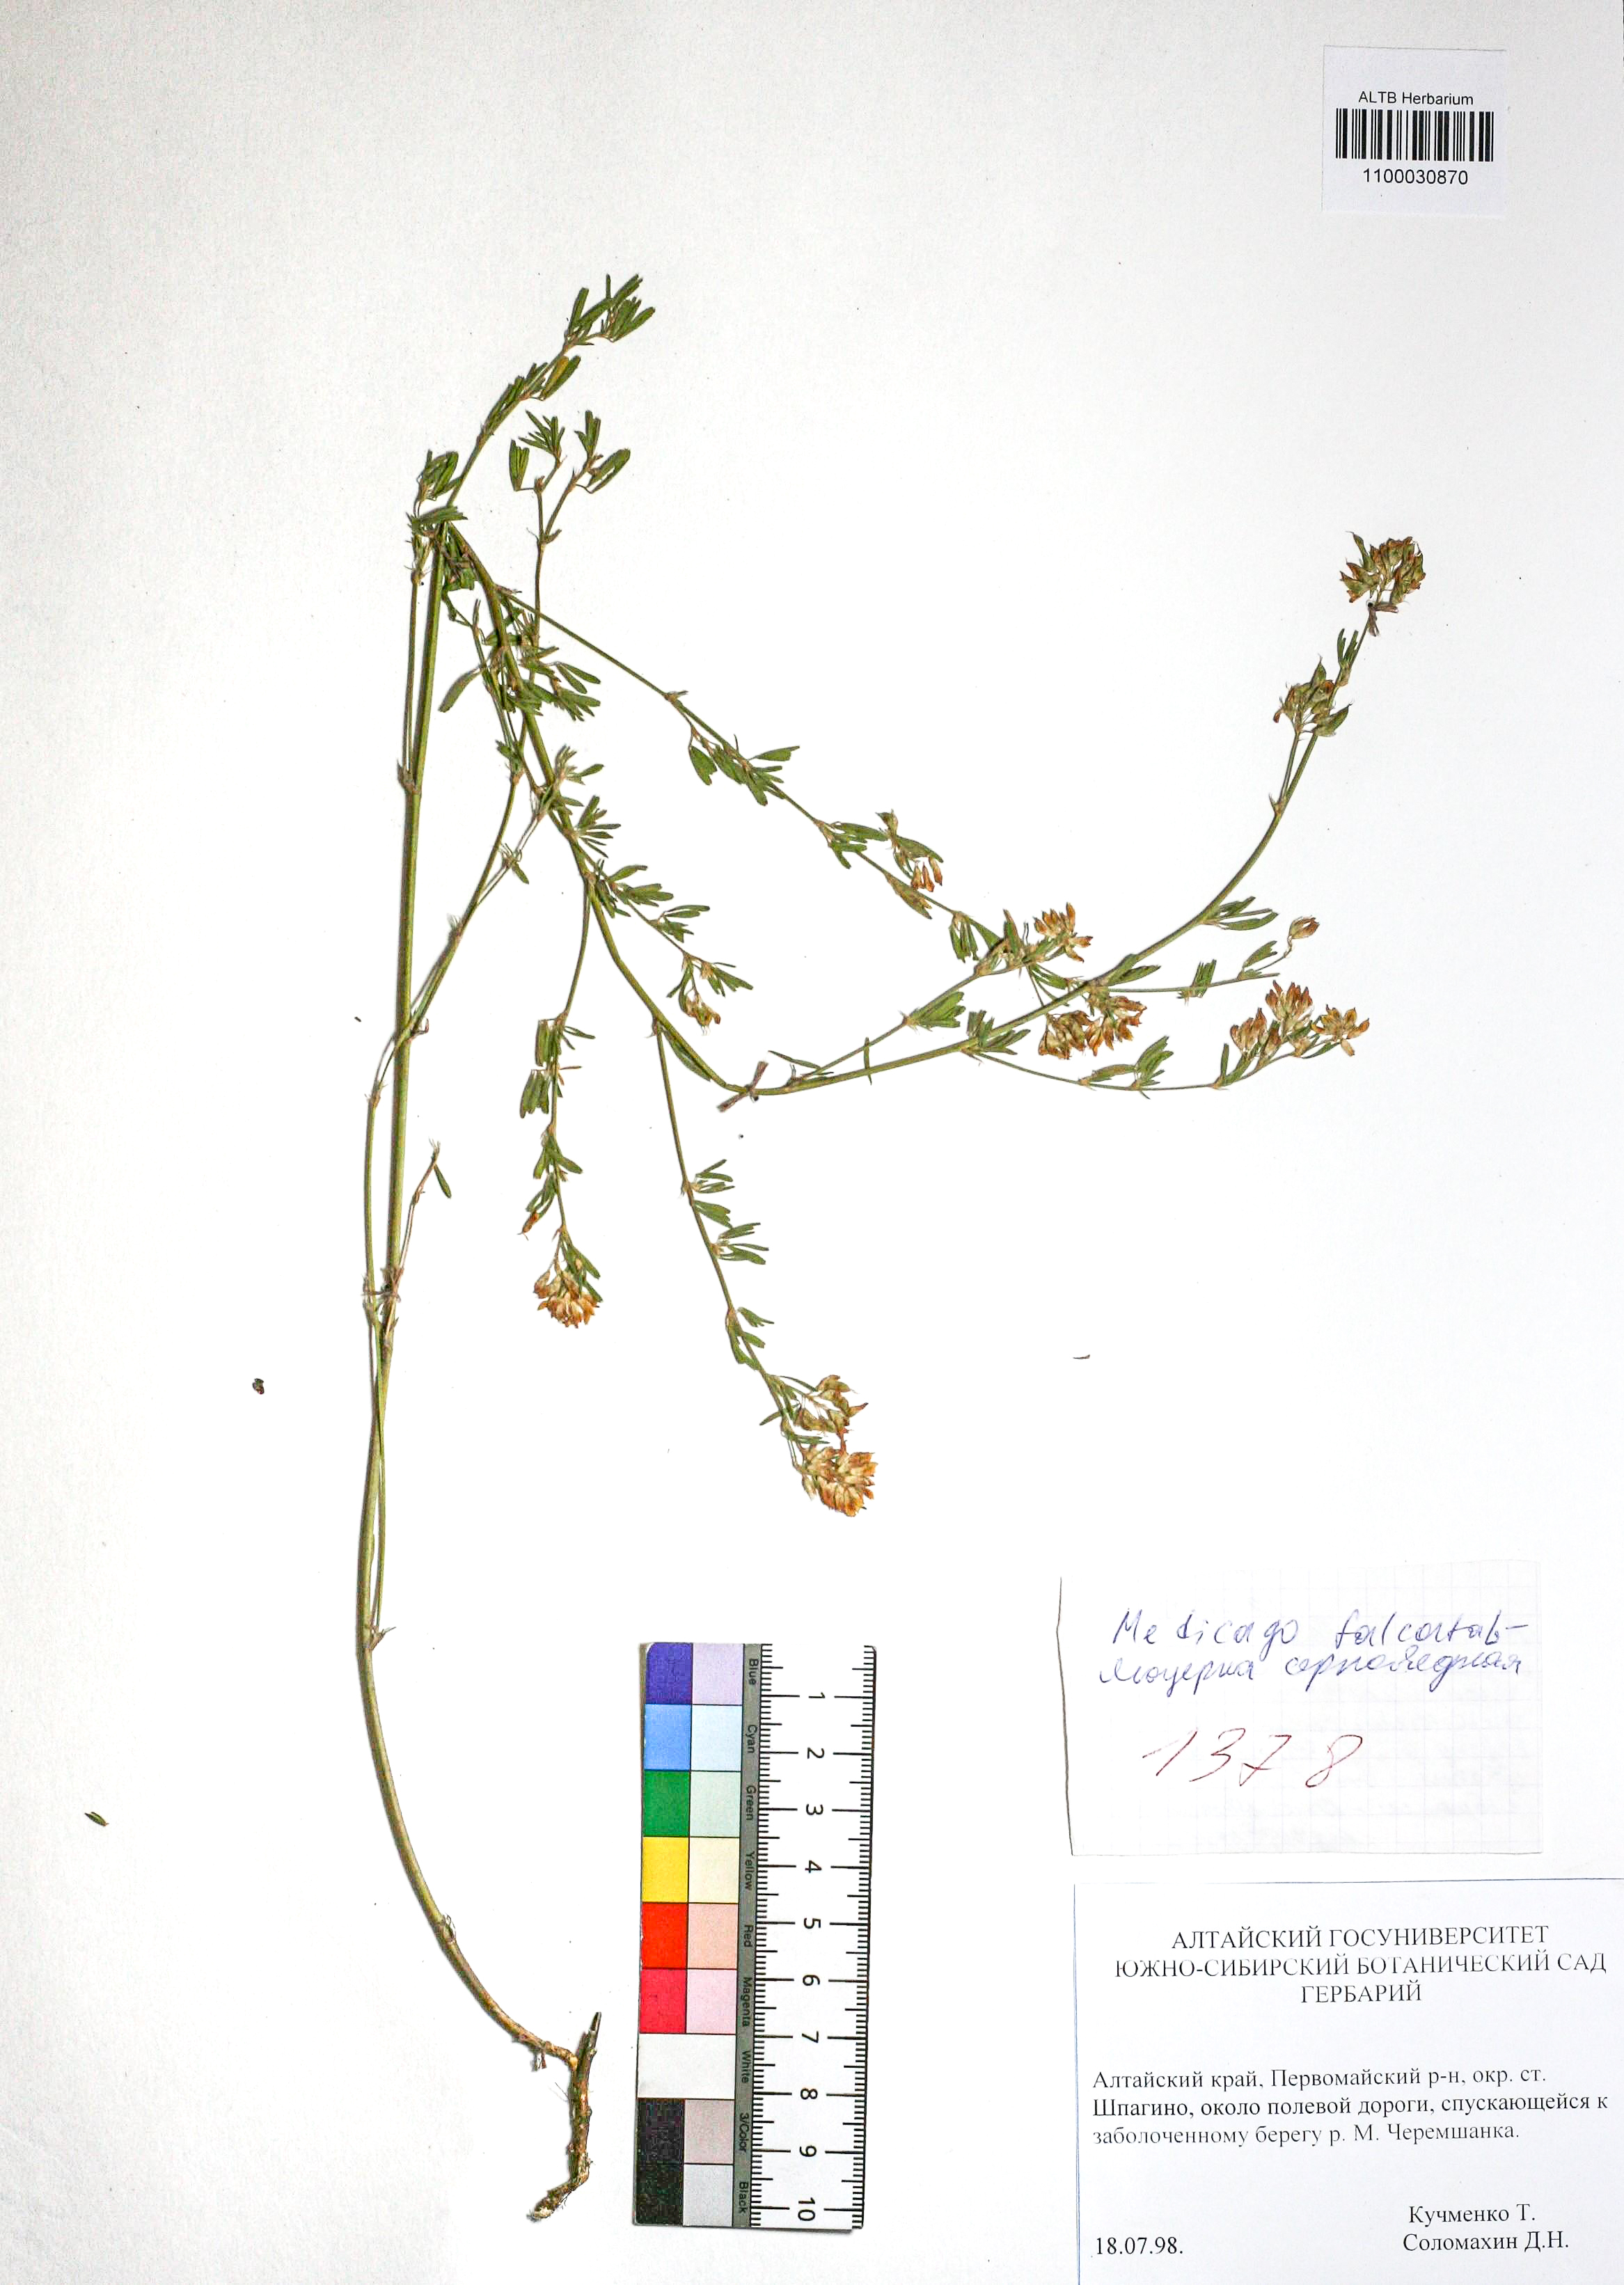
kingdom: Plantae
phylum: Tracheophyta
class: Magnoliopsida
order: Fabales
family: Fabaceae
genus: Medicago
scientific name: Medicago falcata
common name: Sickle medick
